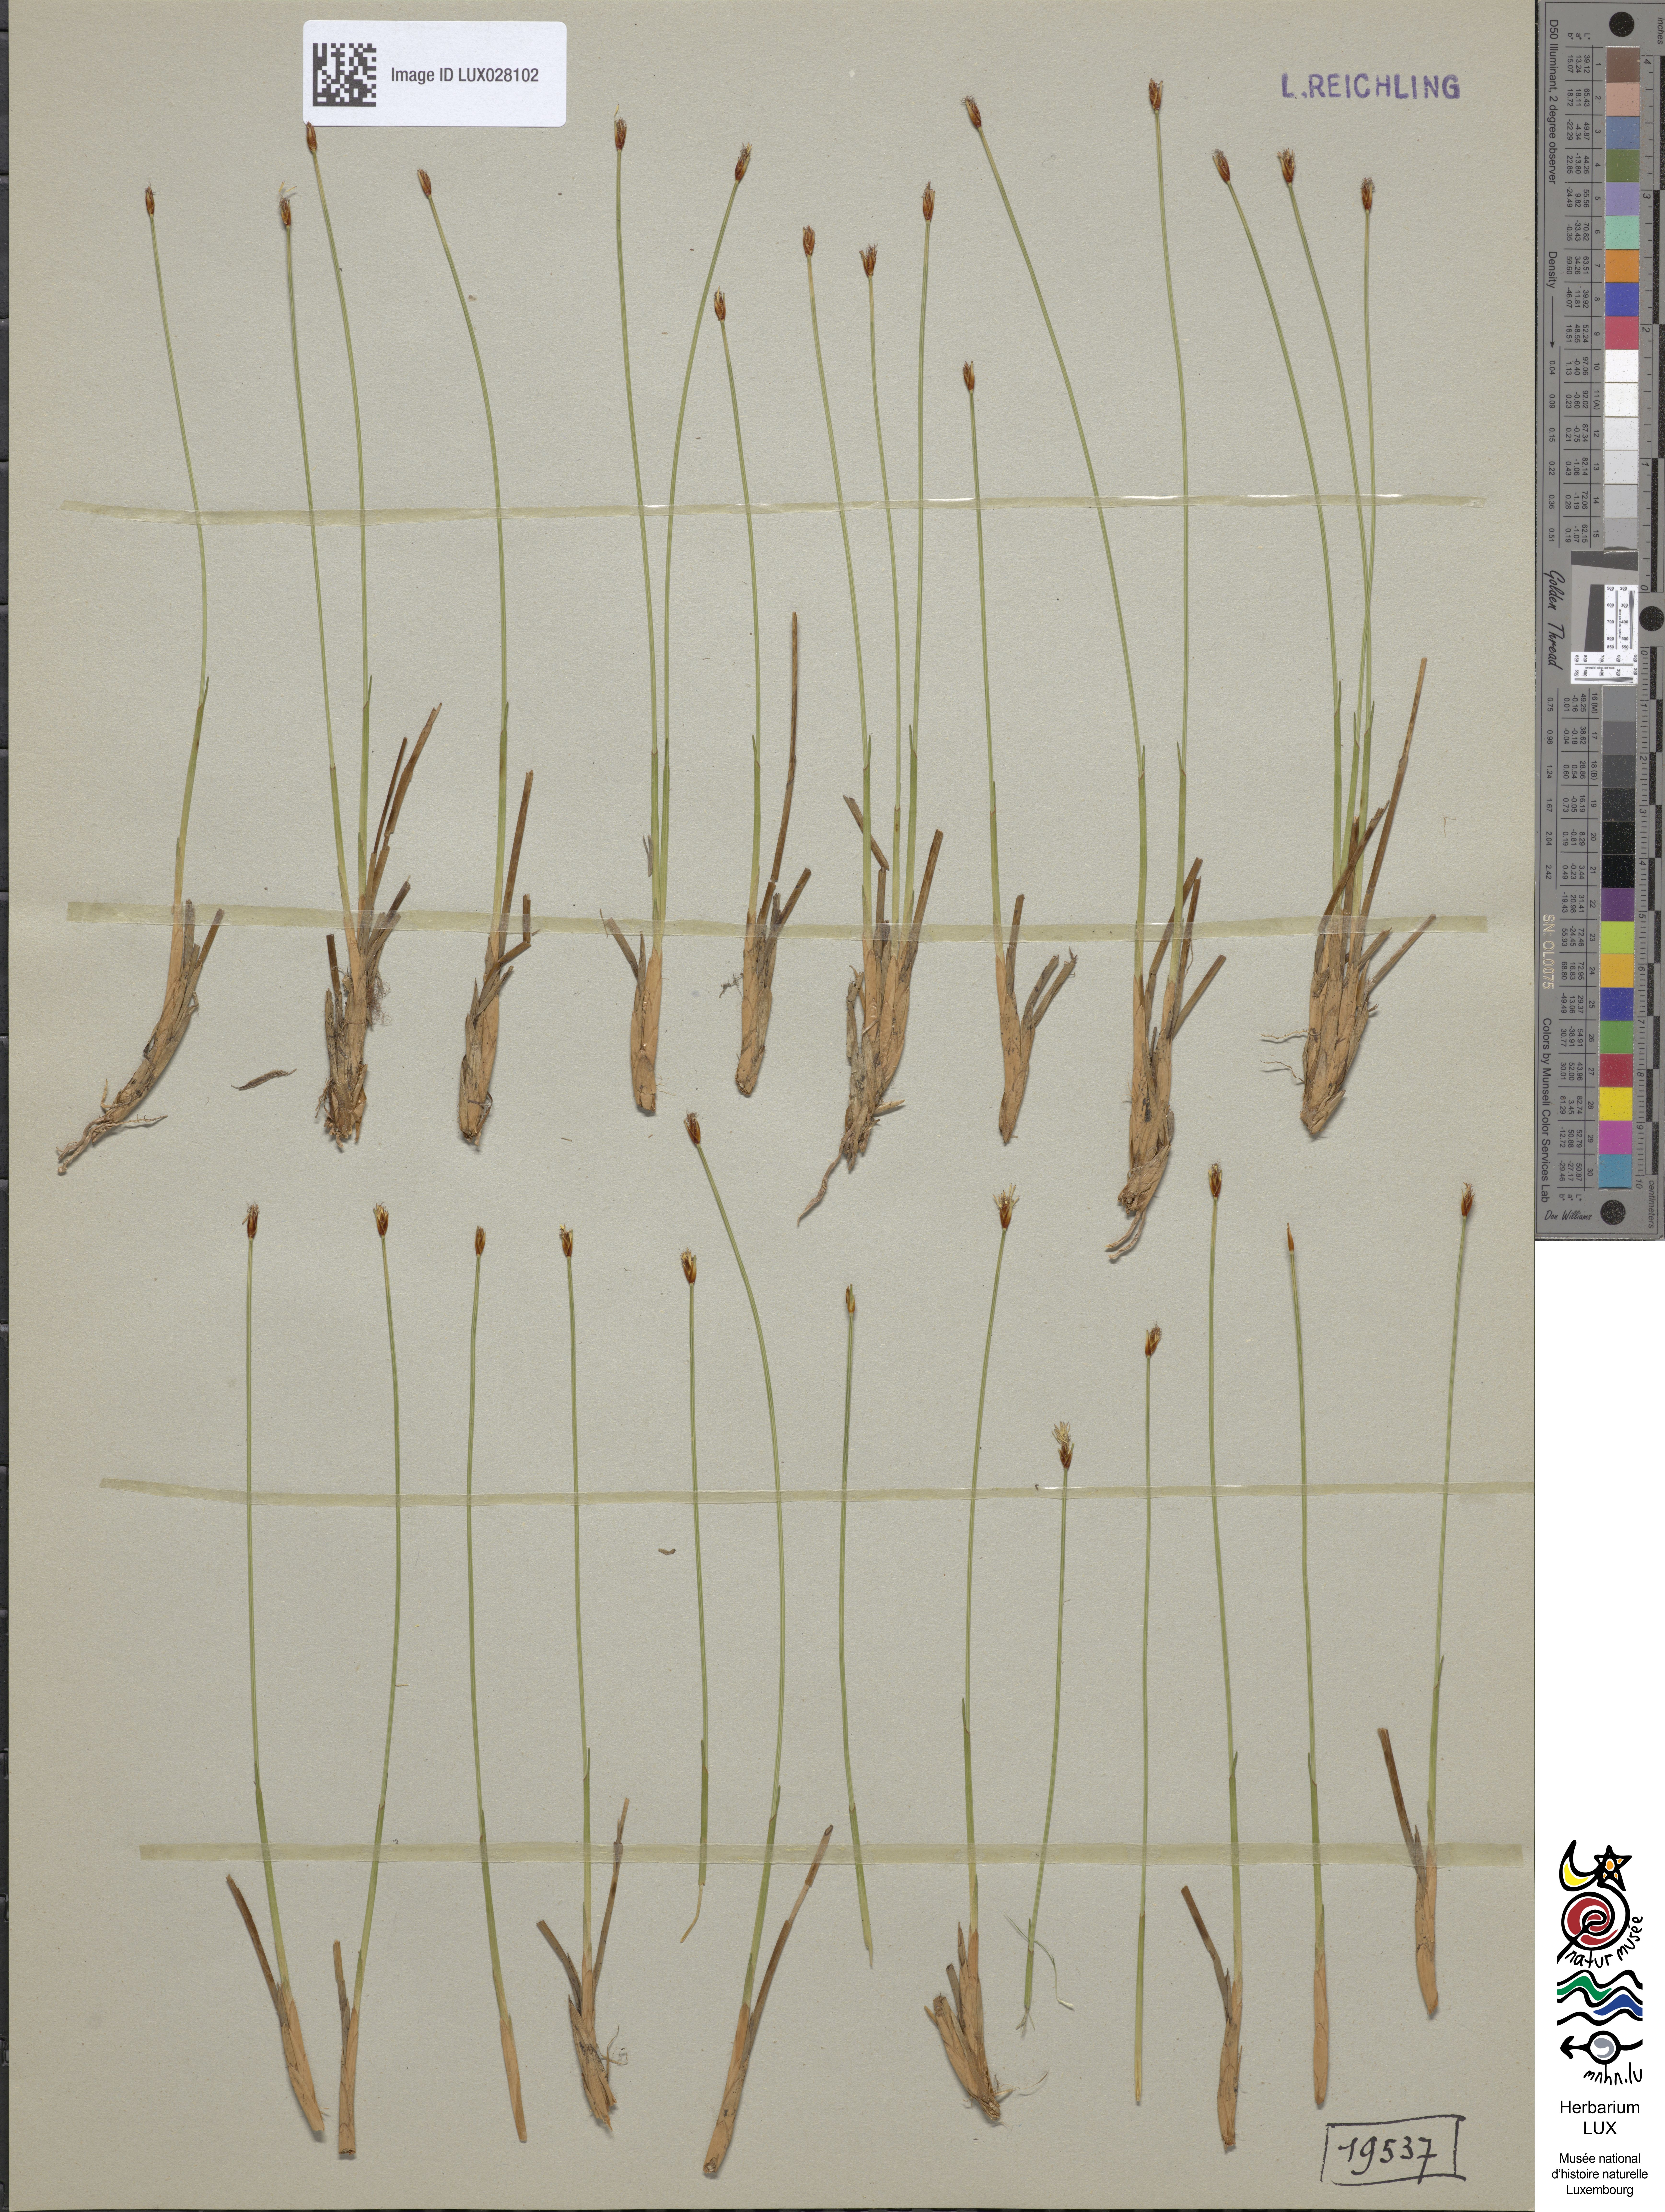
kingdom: Plantae
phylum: Tracheophyta
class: Liliopsida
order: Poales
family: Cyperaceae
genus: Trichophorum
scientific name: Trichophorum cespitosum
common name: Cespitose bulrush
